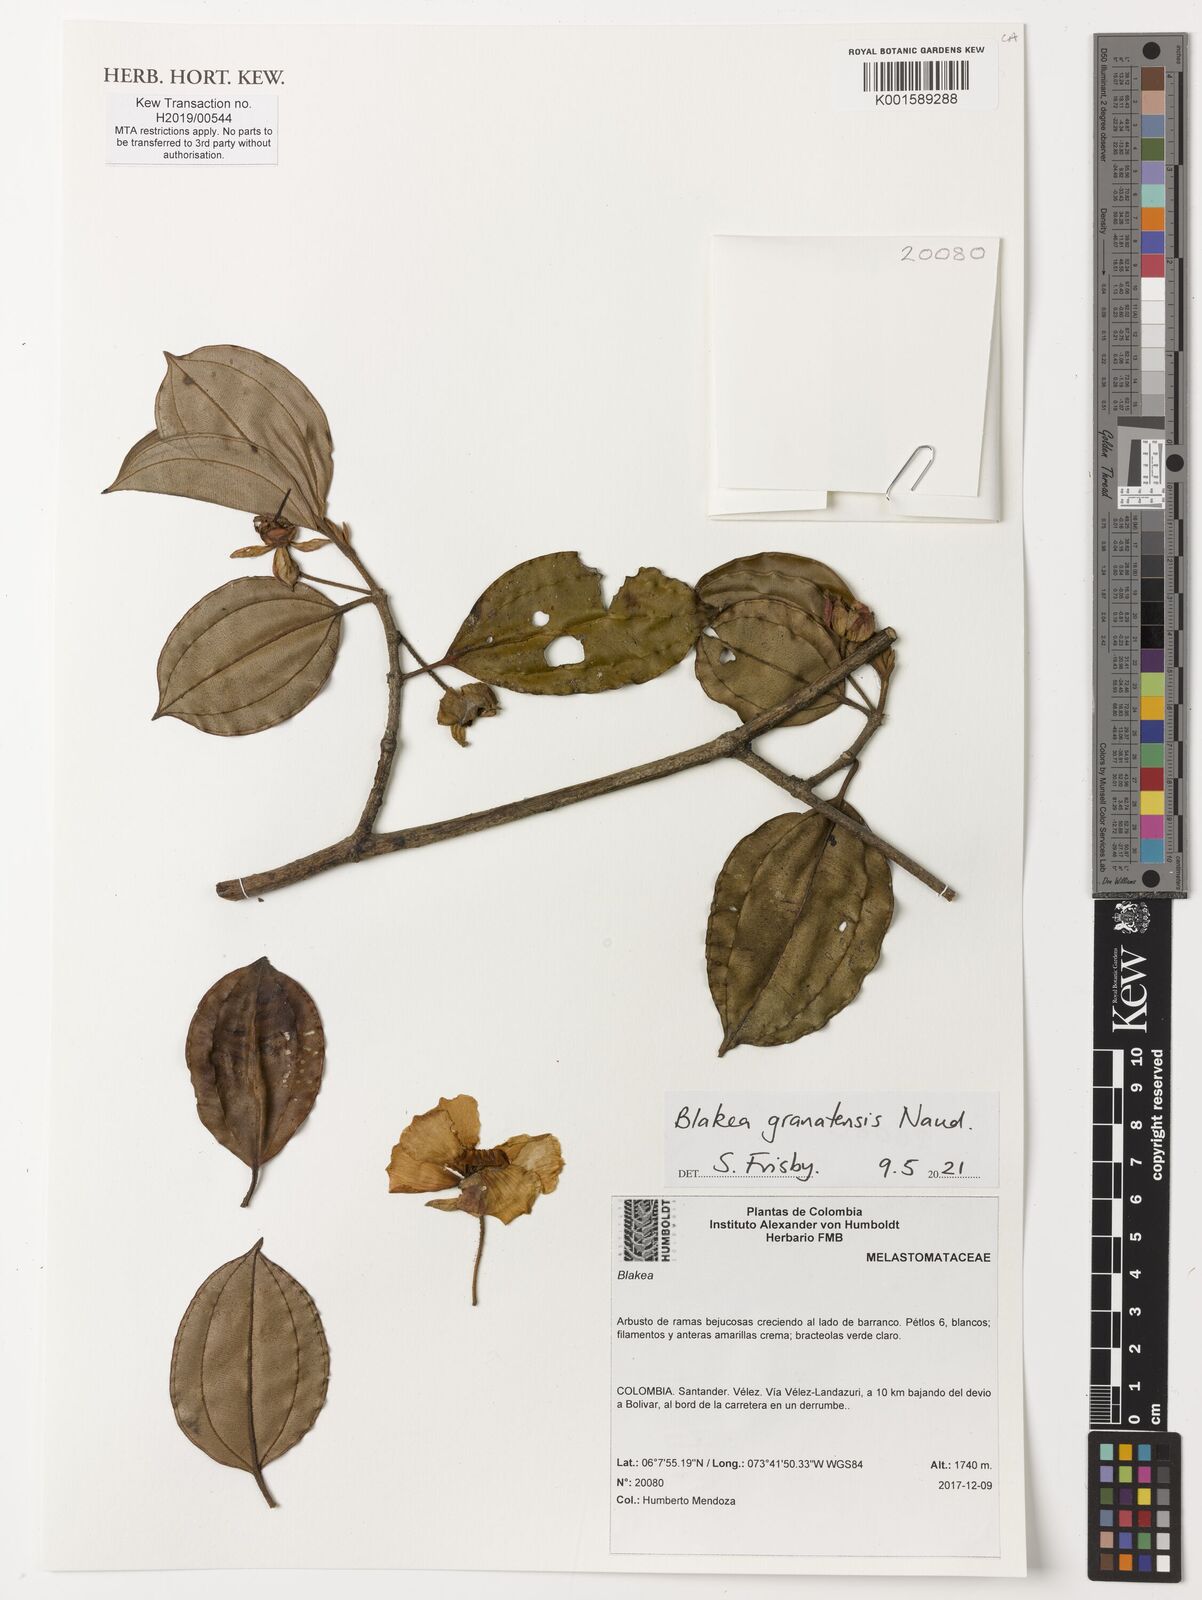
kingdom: Plantae
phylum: Tracheophyta
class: Magnoliopsida
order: Myrtales
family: Melastomataceae
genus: Blakea
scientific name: Blakea granatensis
